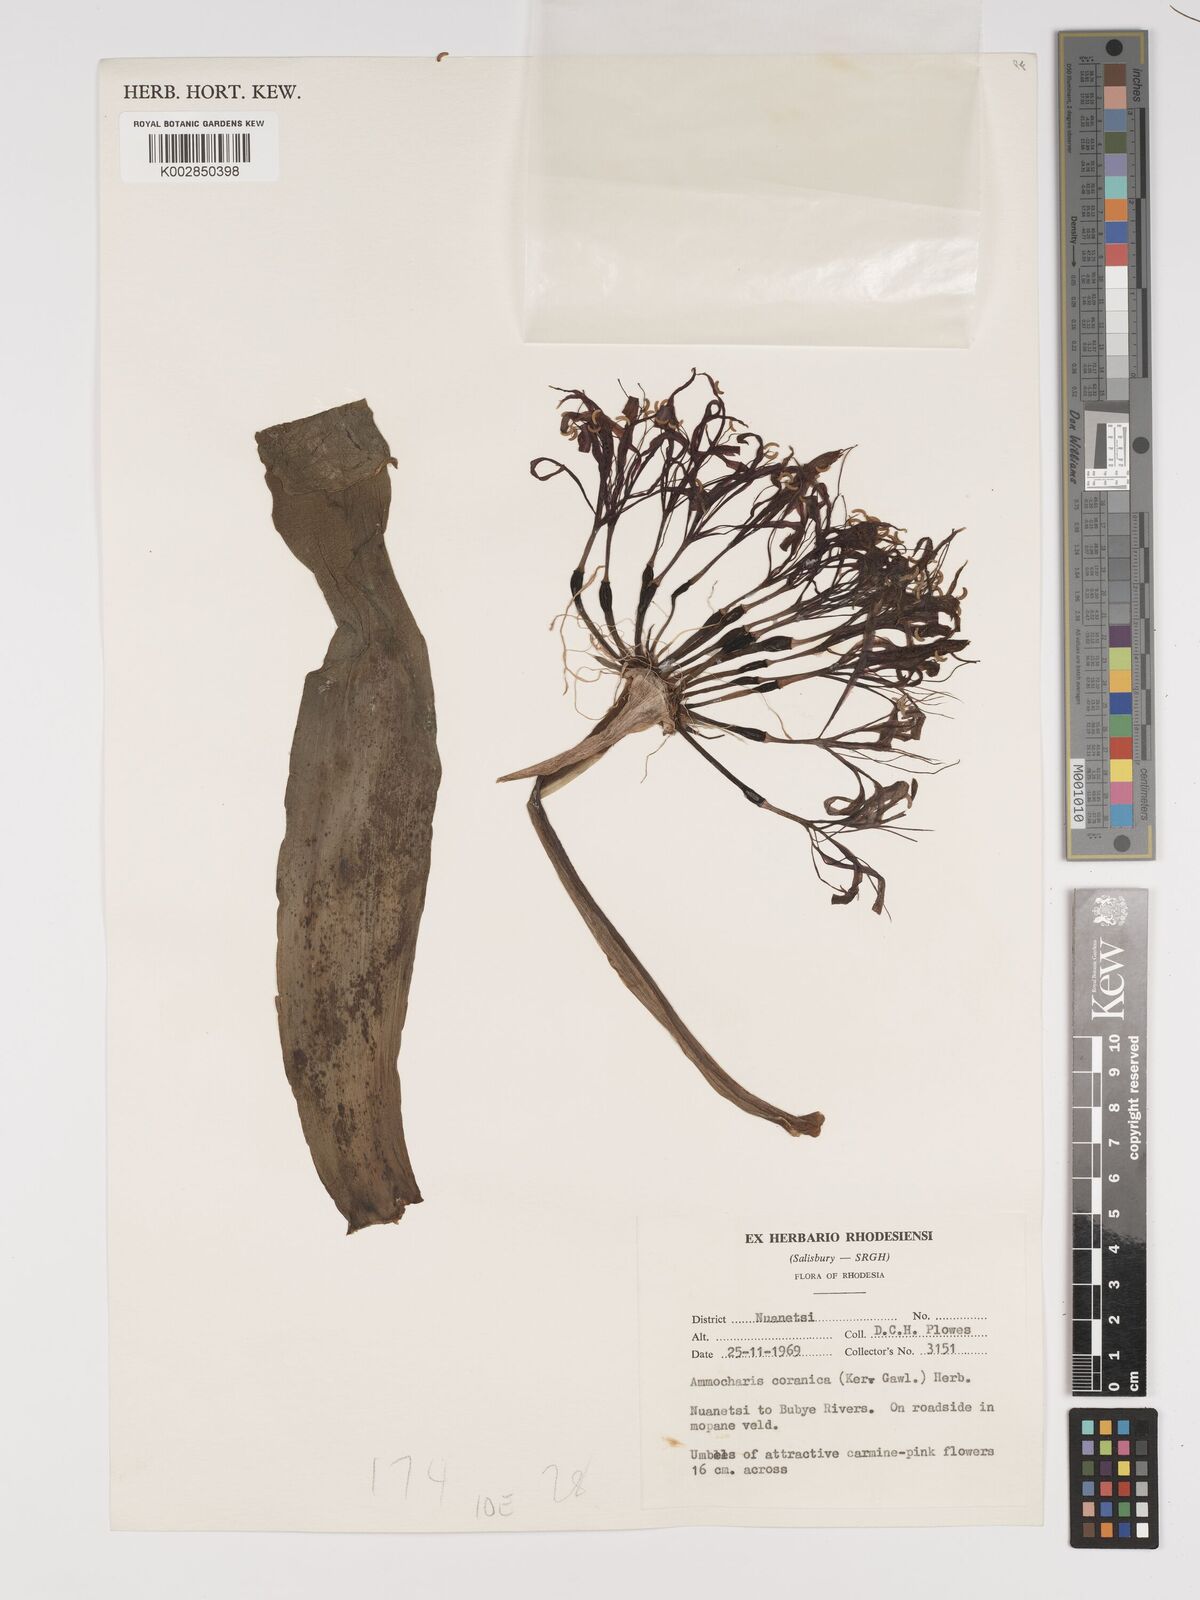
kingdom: Plantae
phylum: Tracheophyta
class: Liliopsida
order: Asparagales
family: Amaryllidaceae
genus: Ammocharis
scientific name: Ammocharis coranica
